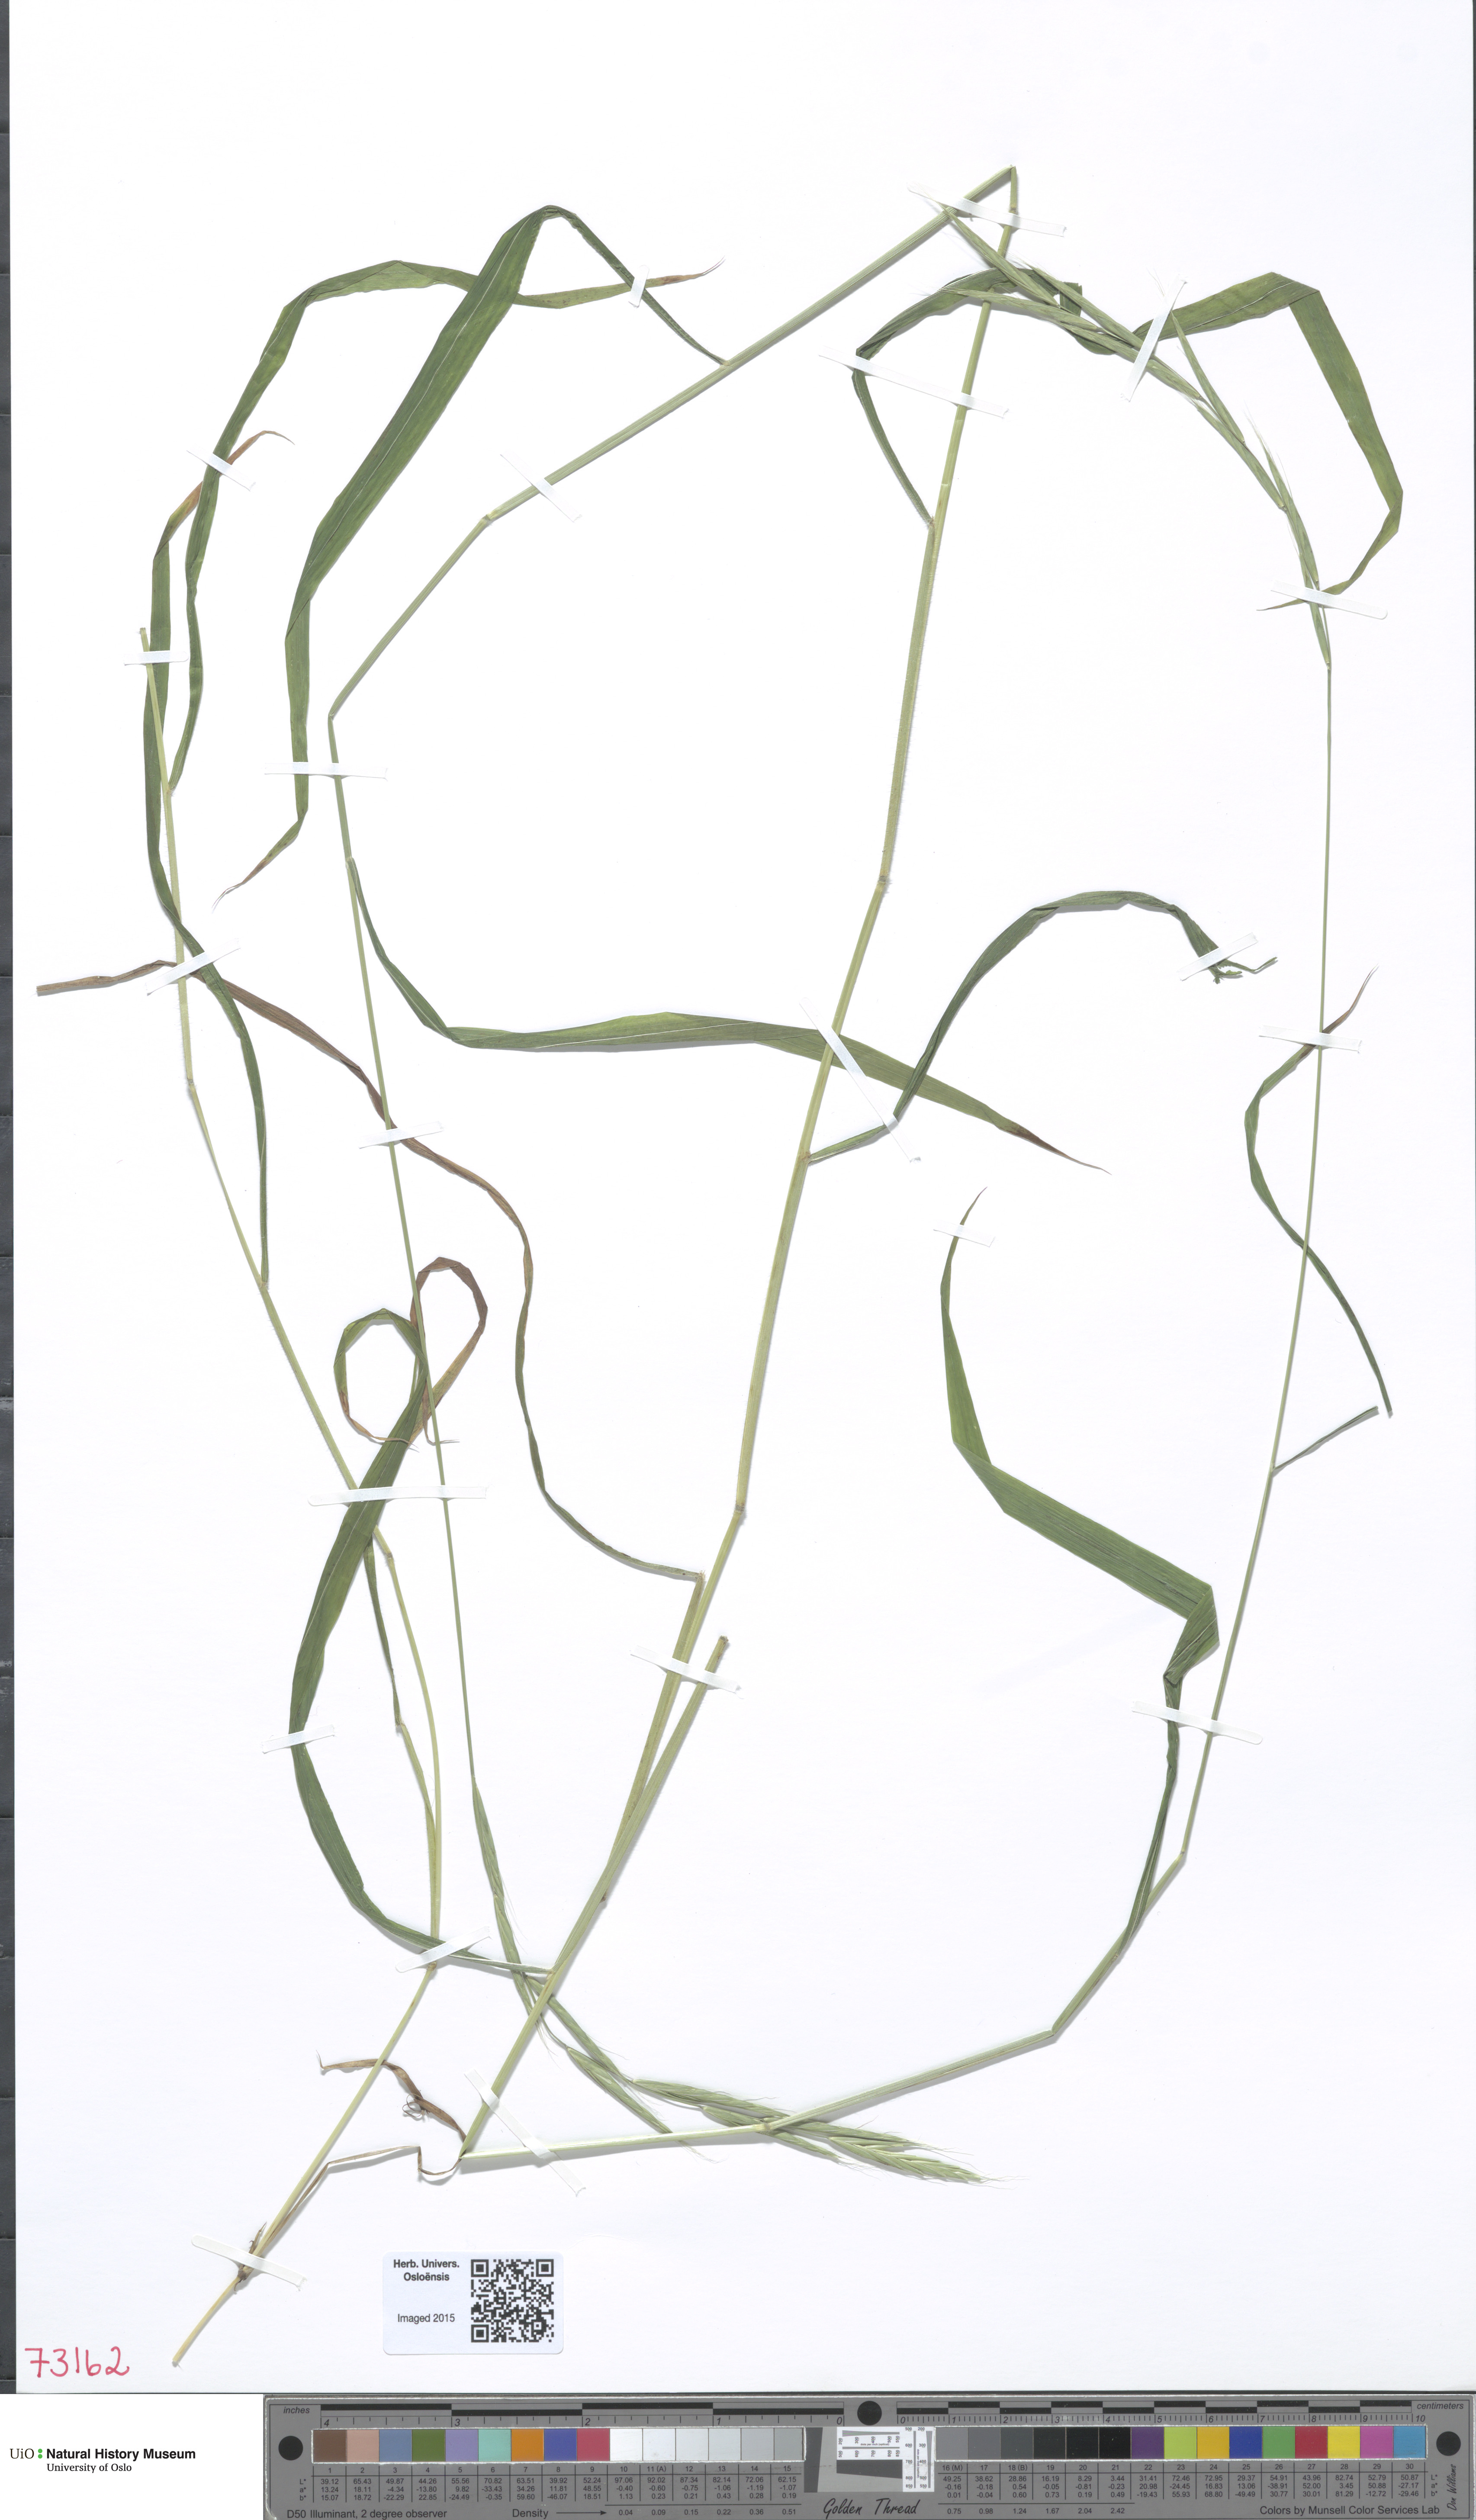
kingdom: Plantae
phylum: Tracheophyta
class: Liliopsida
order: Poales
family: Poaceae
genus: Brachypodium
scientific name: Brachypodium sylvaticum
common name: False-brome
